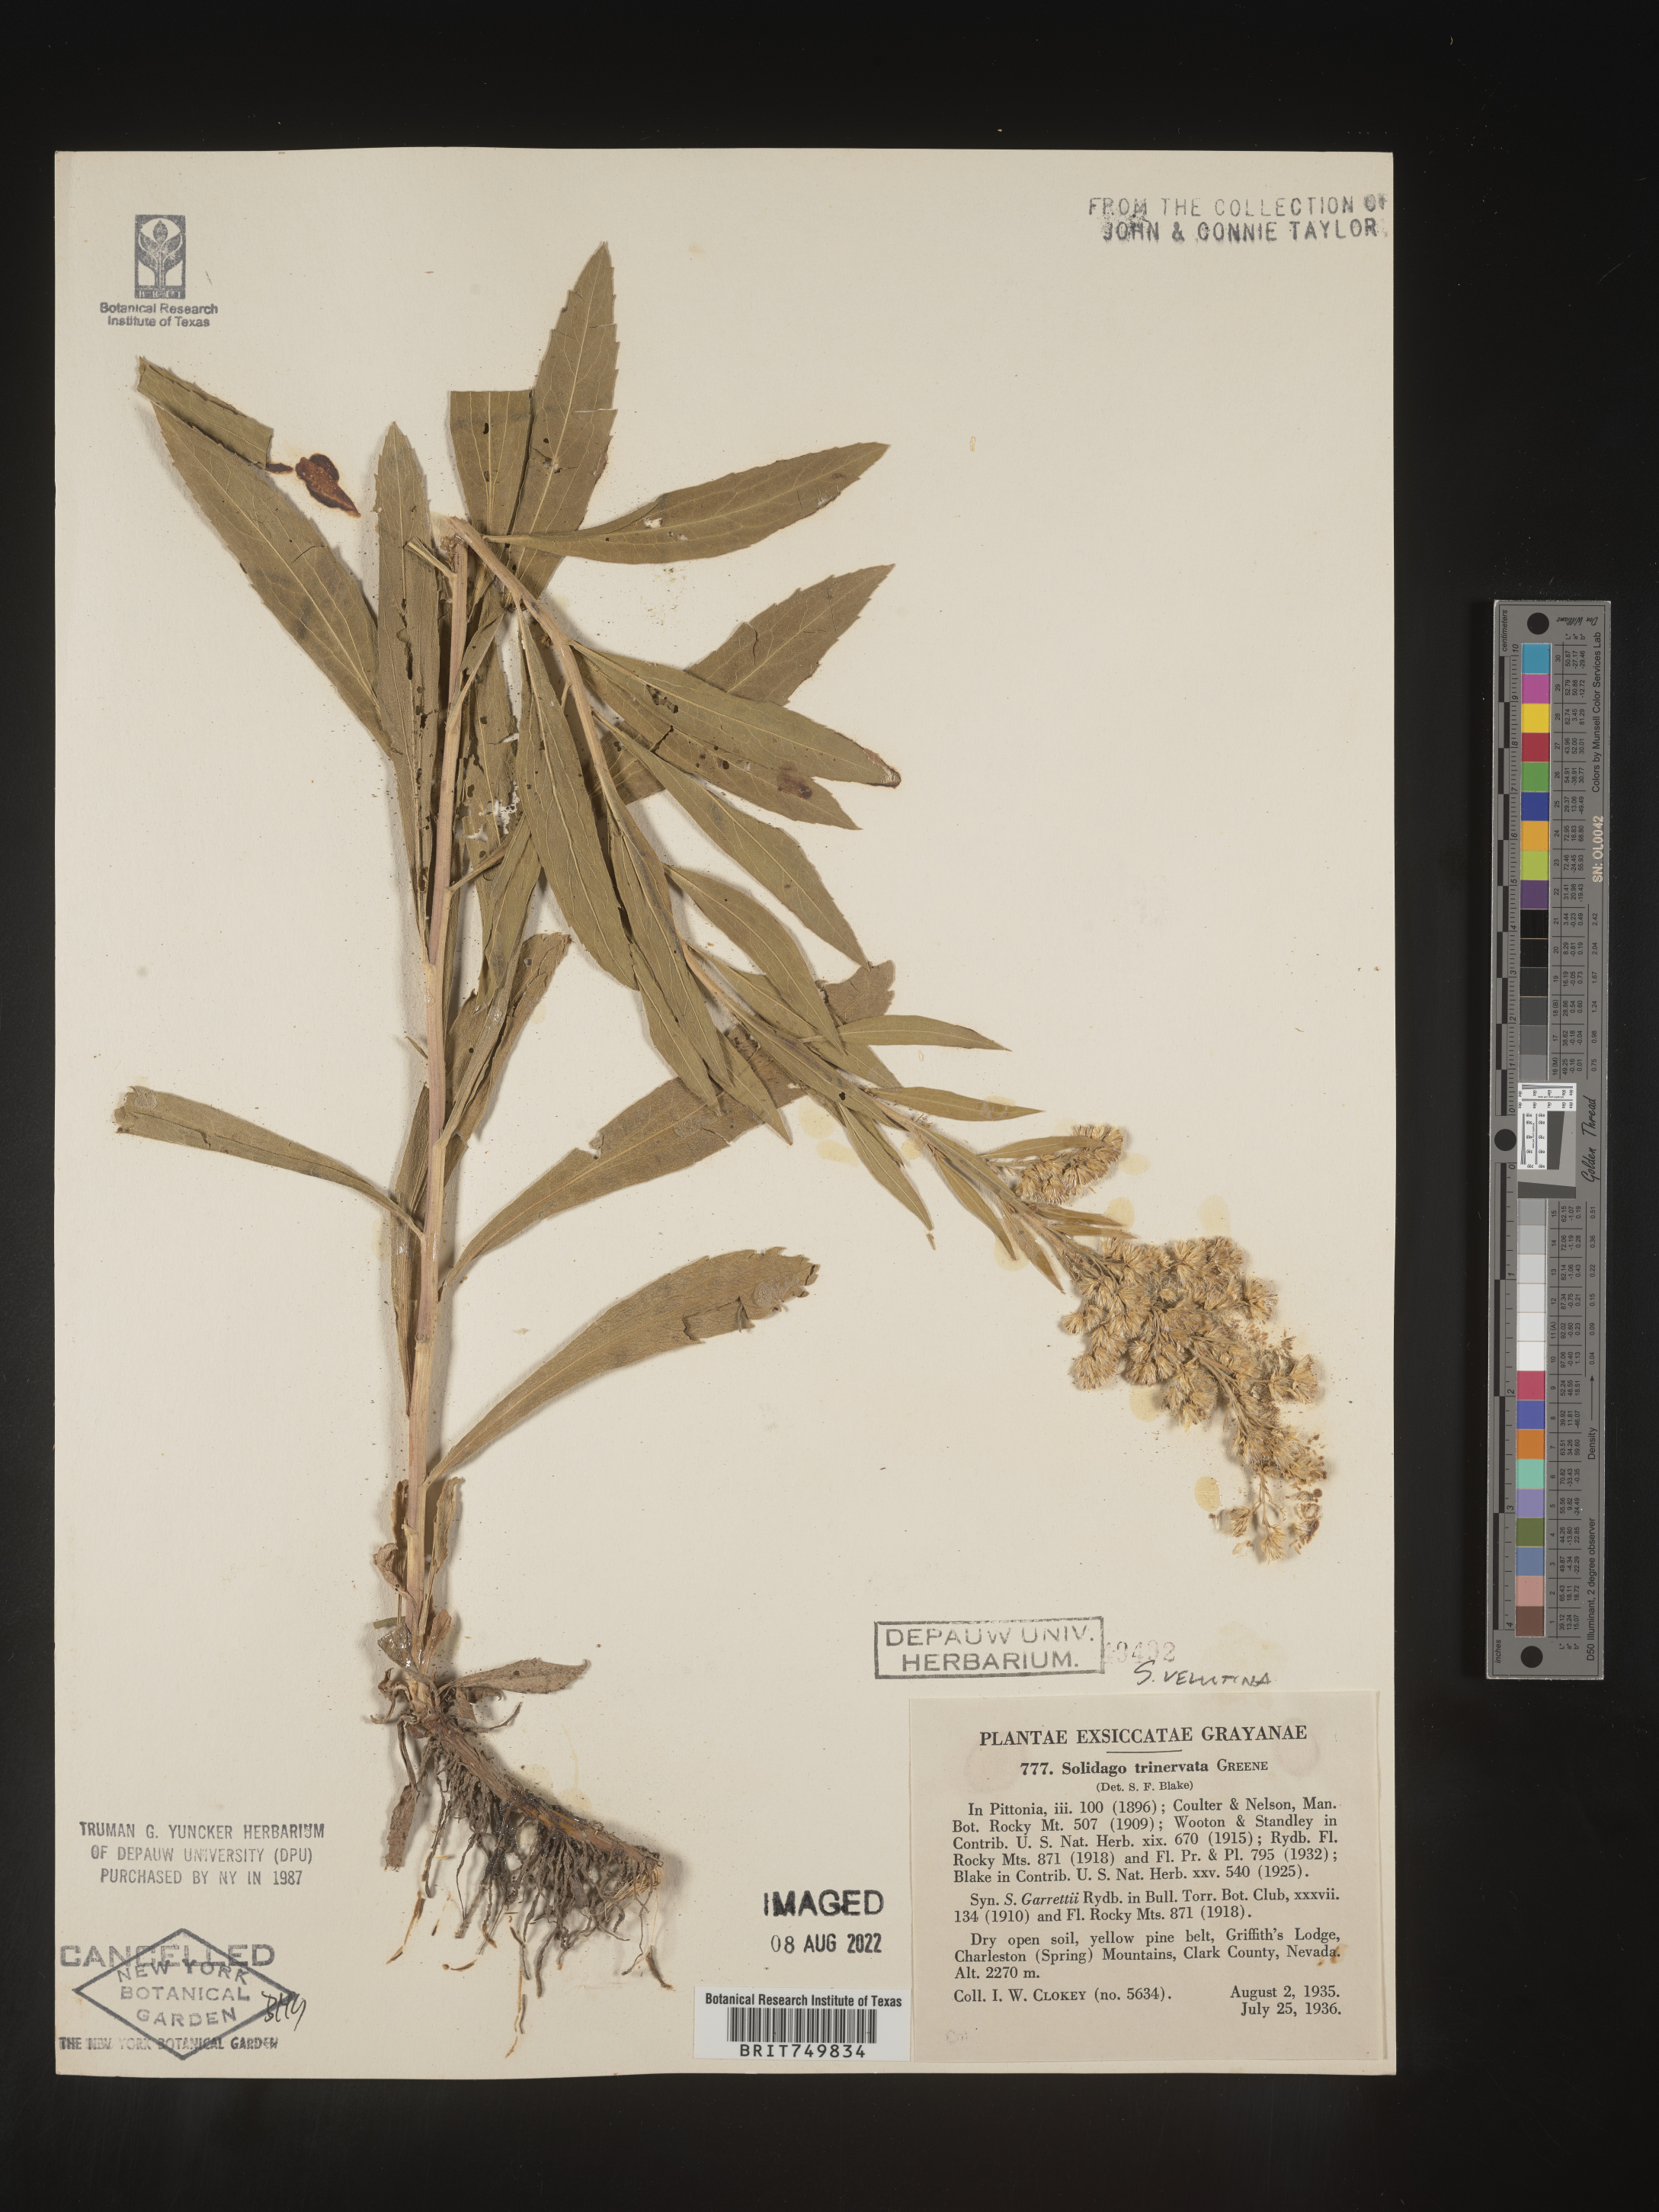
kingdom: Plantae
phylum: Tracheophyta
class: Magnoliopsida
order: Asterales
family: Asteraceae
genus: Solidago
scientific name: Solidago velutina
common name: Three-nerve goldenrod
